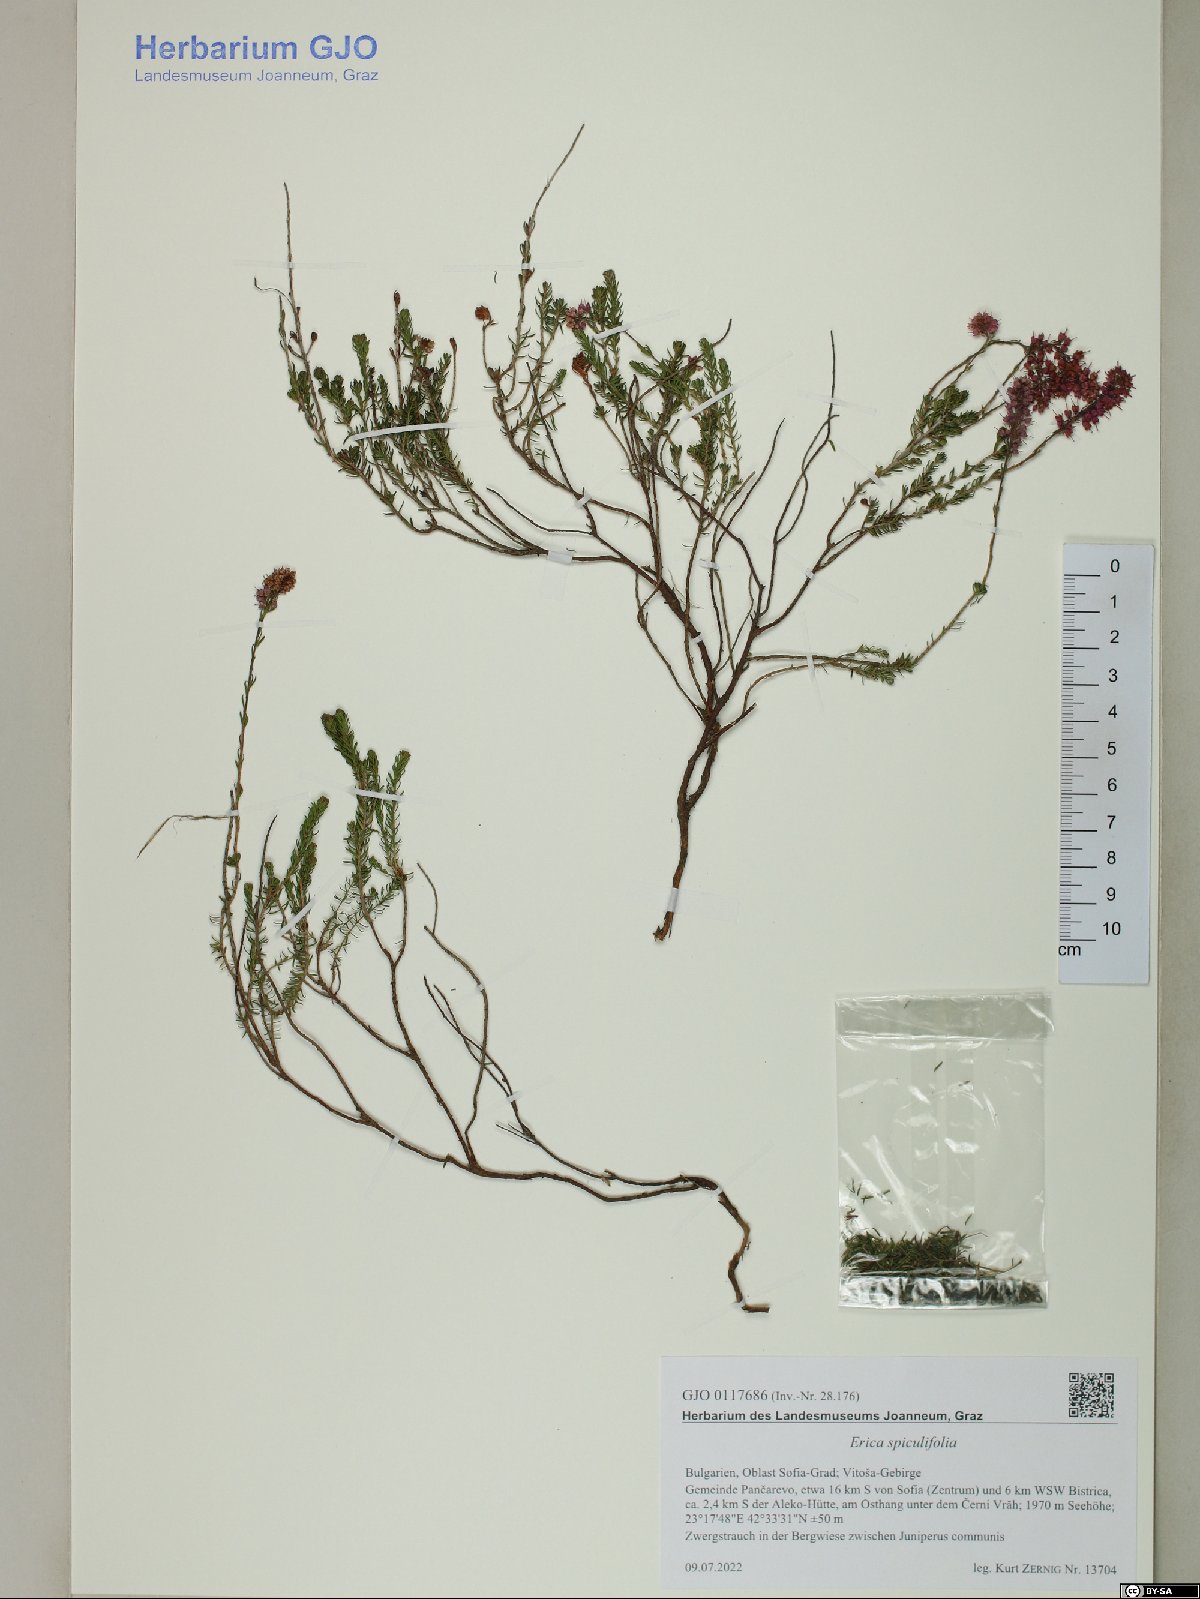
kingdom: Plantae
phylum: Tracheophyta
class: Magnoliopsida
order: Ericales
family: Ericaceae
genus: Erica
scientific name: Erica spiculifolia
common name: Spike heath
